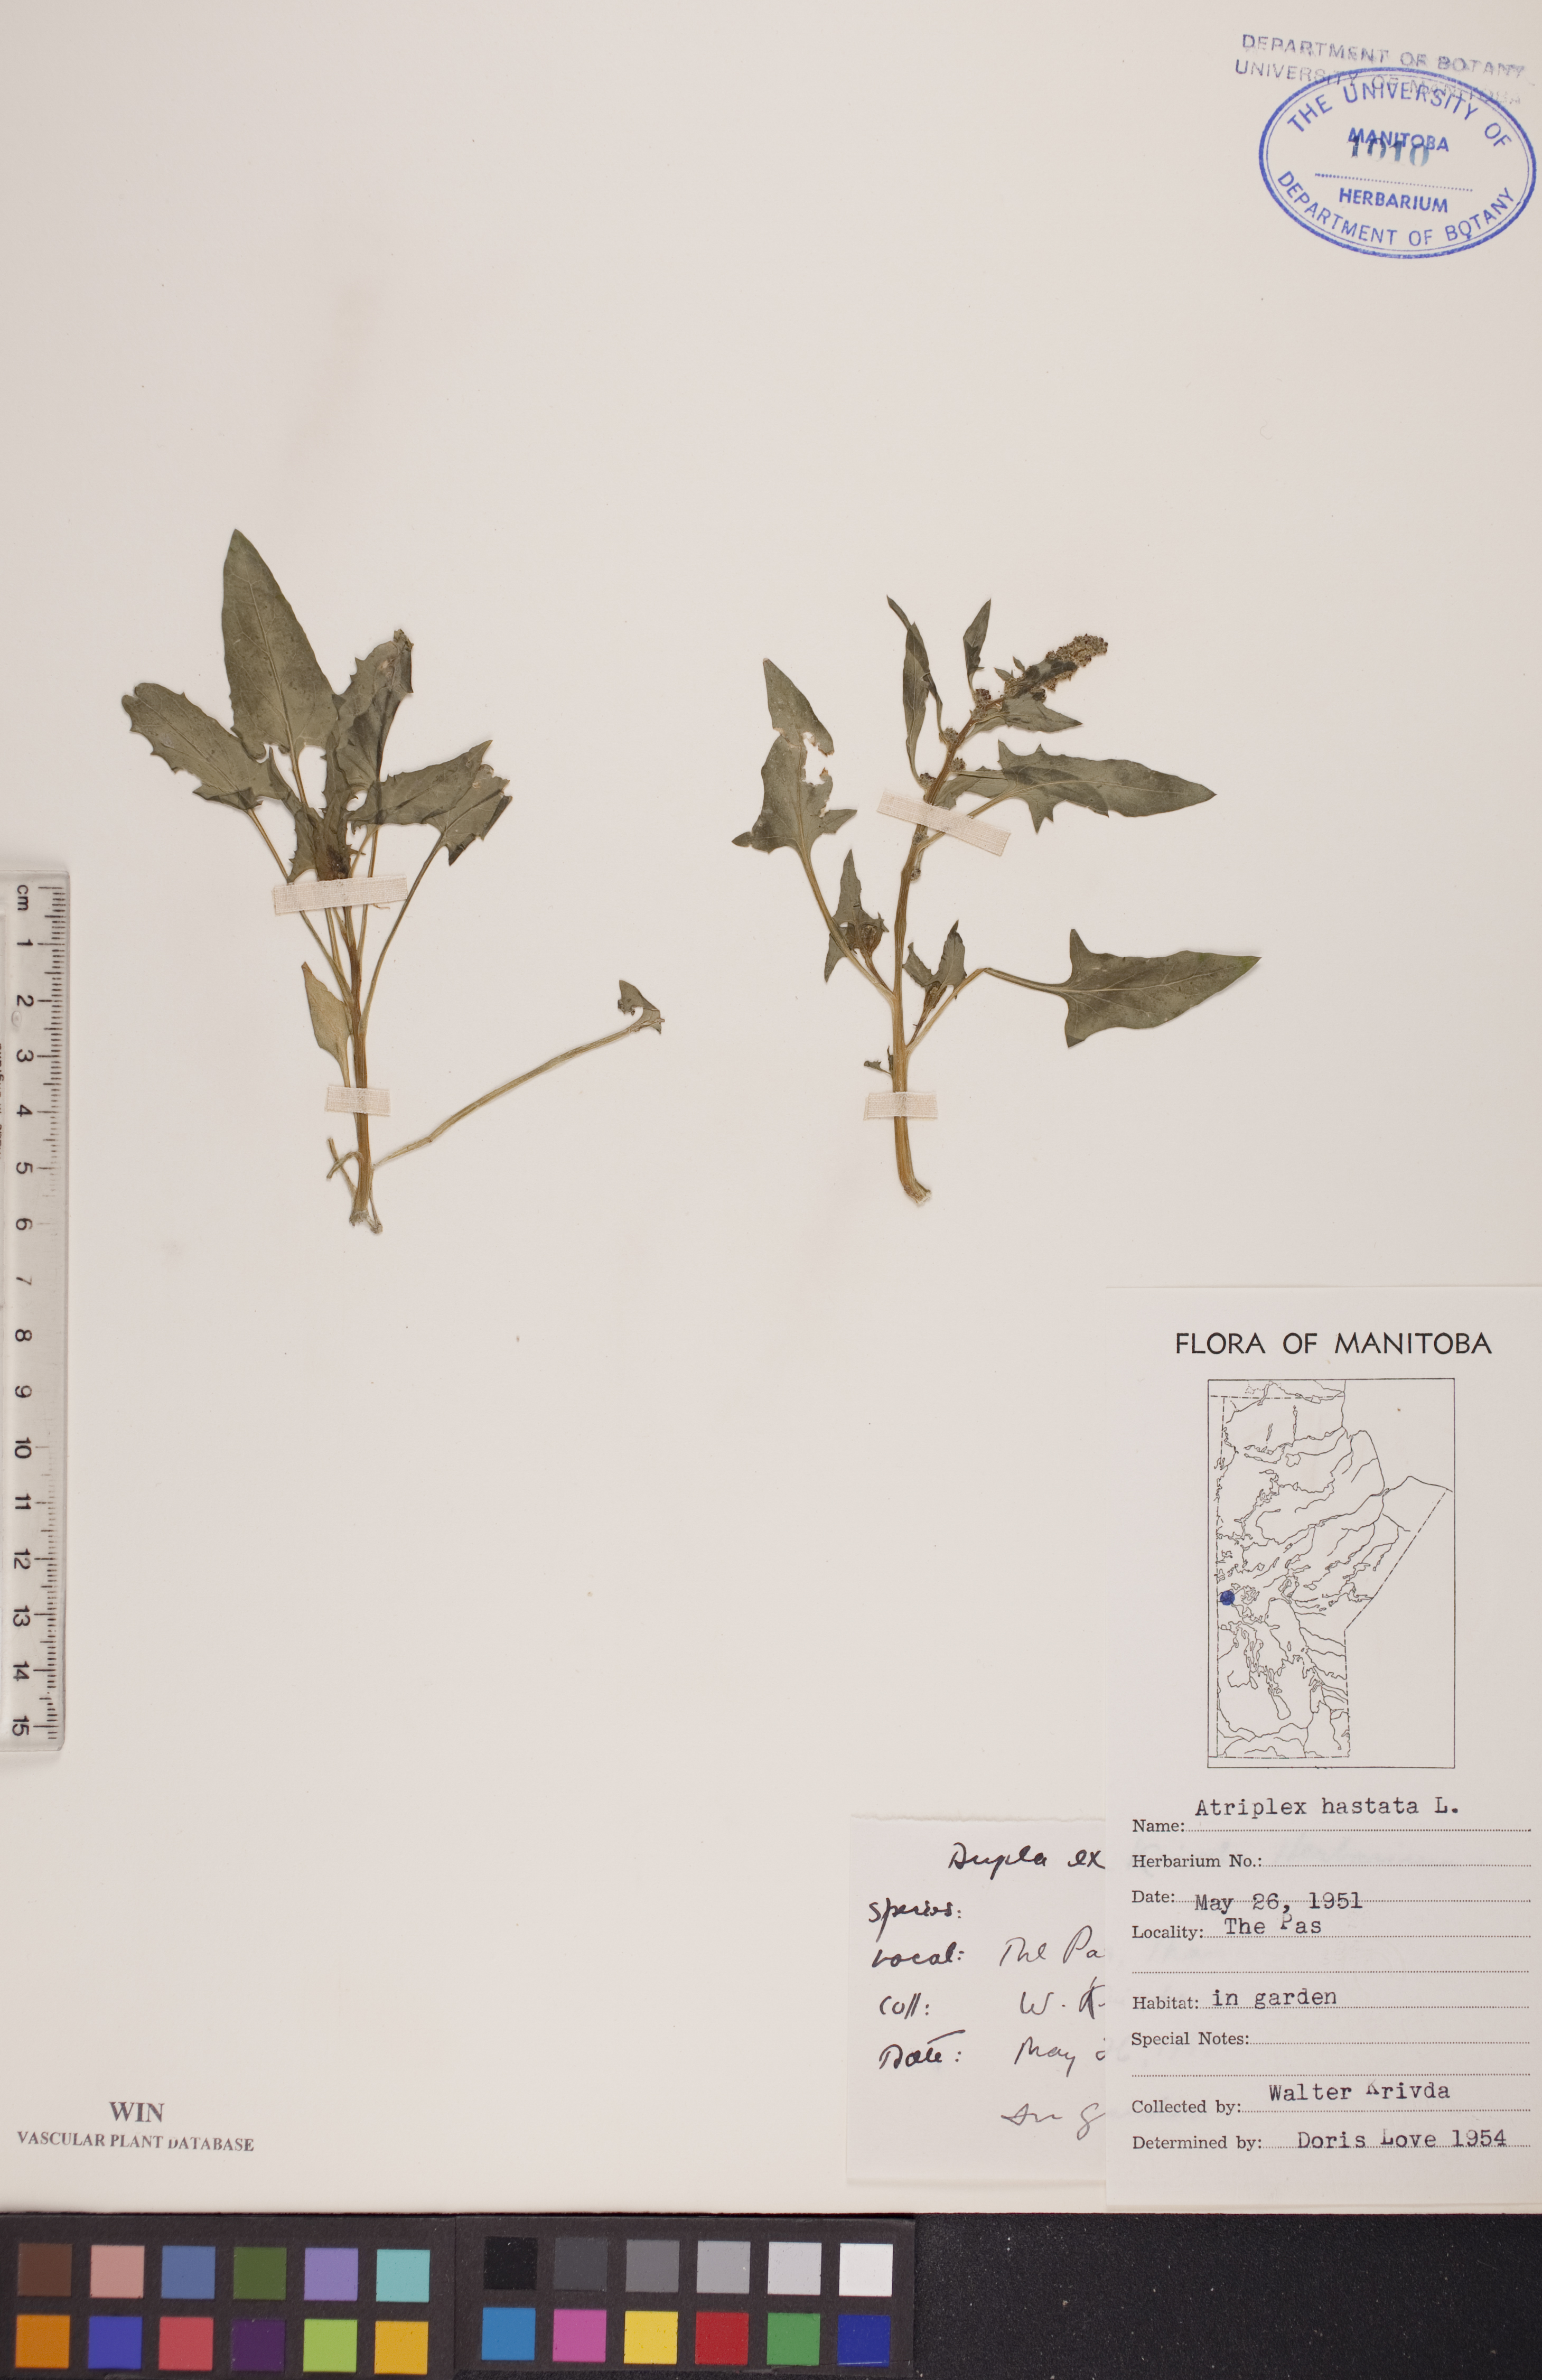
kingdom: Plantae
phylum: Tracheophyta
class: Magnoliopsida
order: Caryophyllales
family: Amaranthaceae
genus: Atriplex
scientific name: Atriplex
